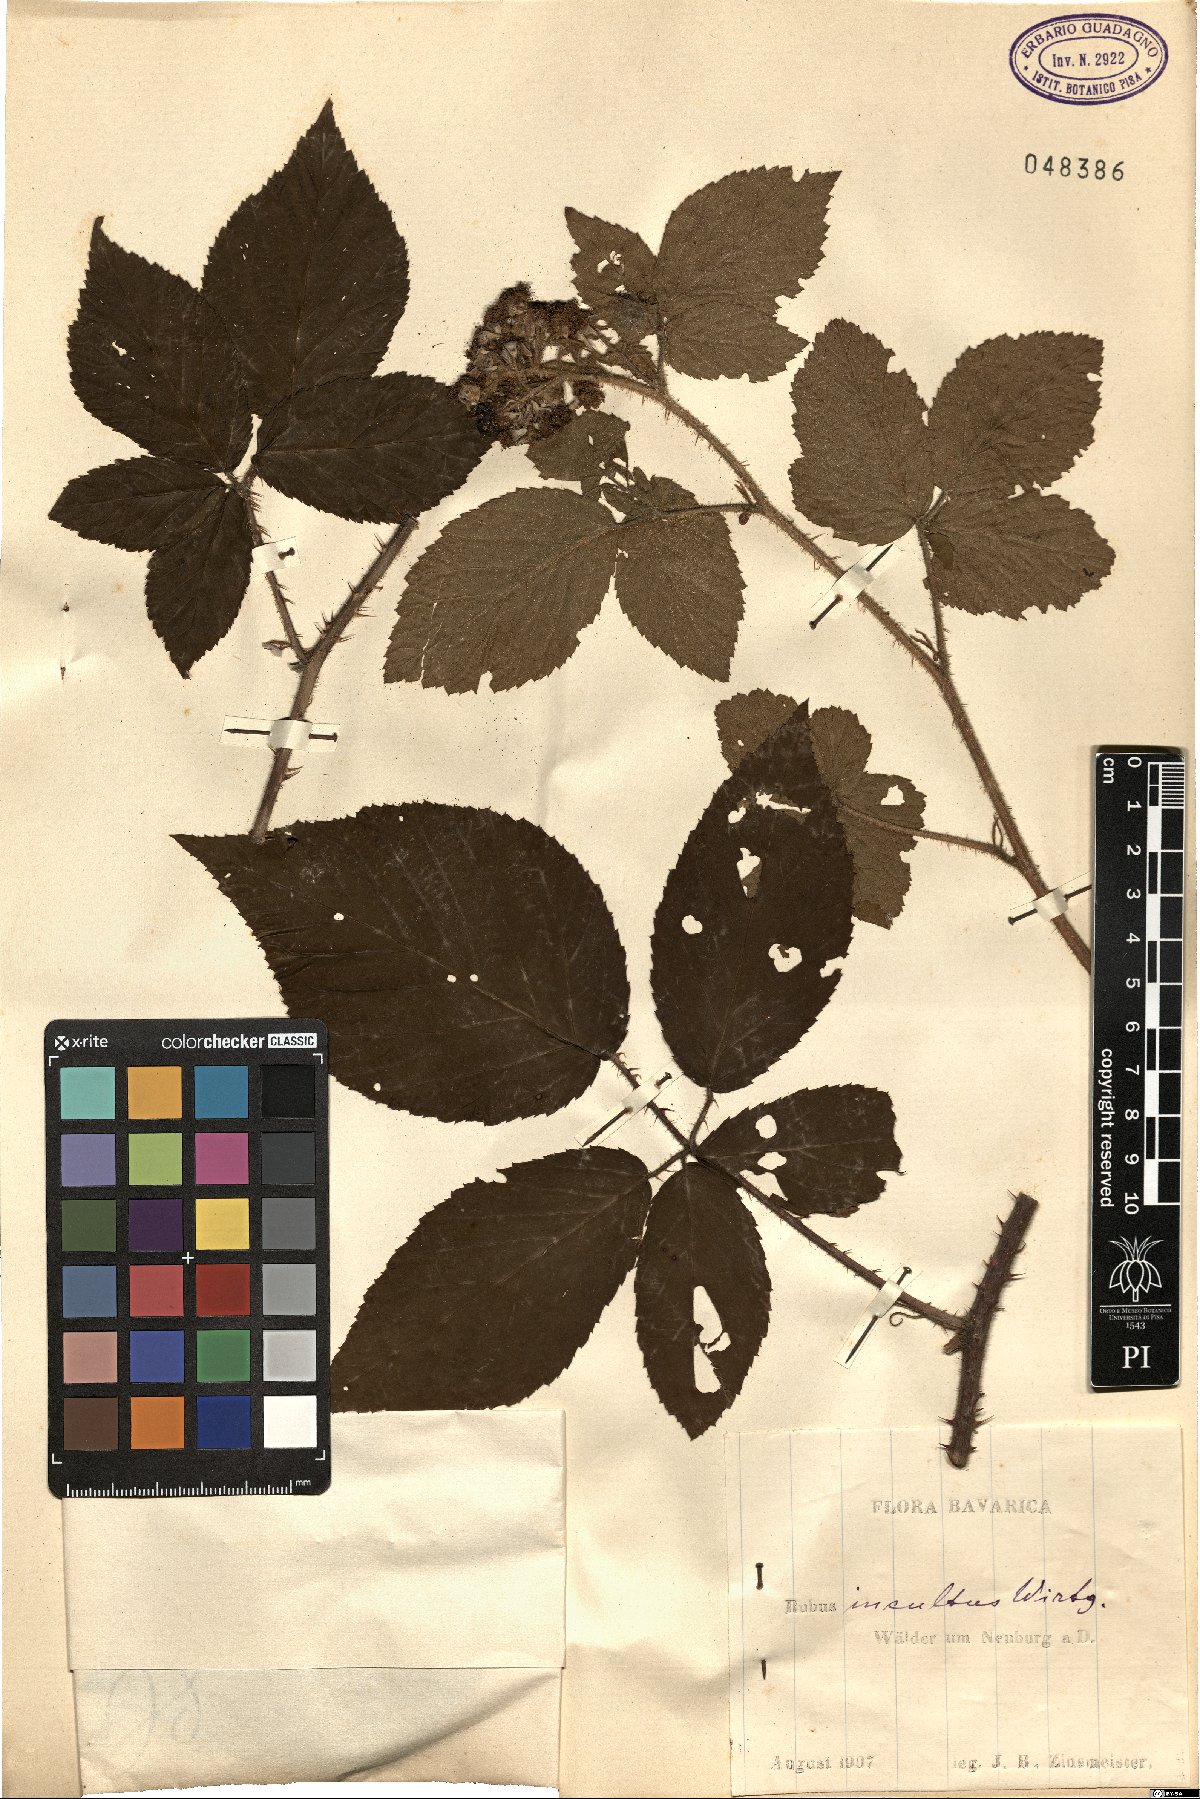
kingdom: Plantae
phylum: Tracheophyta
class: Magnoliopsida
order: Rosales
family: Rosaceae
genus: Rubus
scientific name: Rubus apricus
